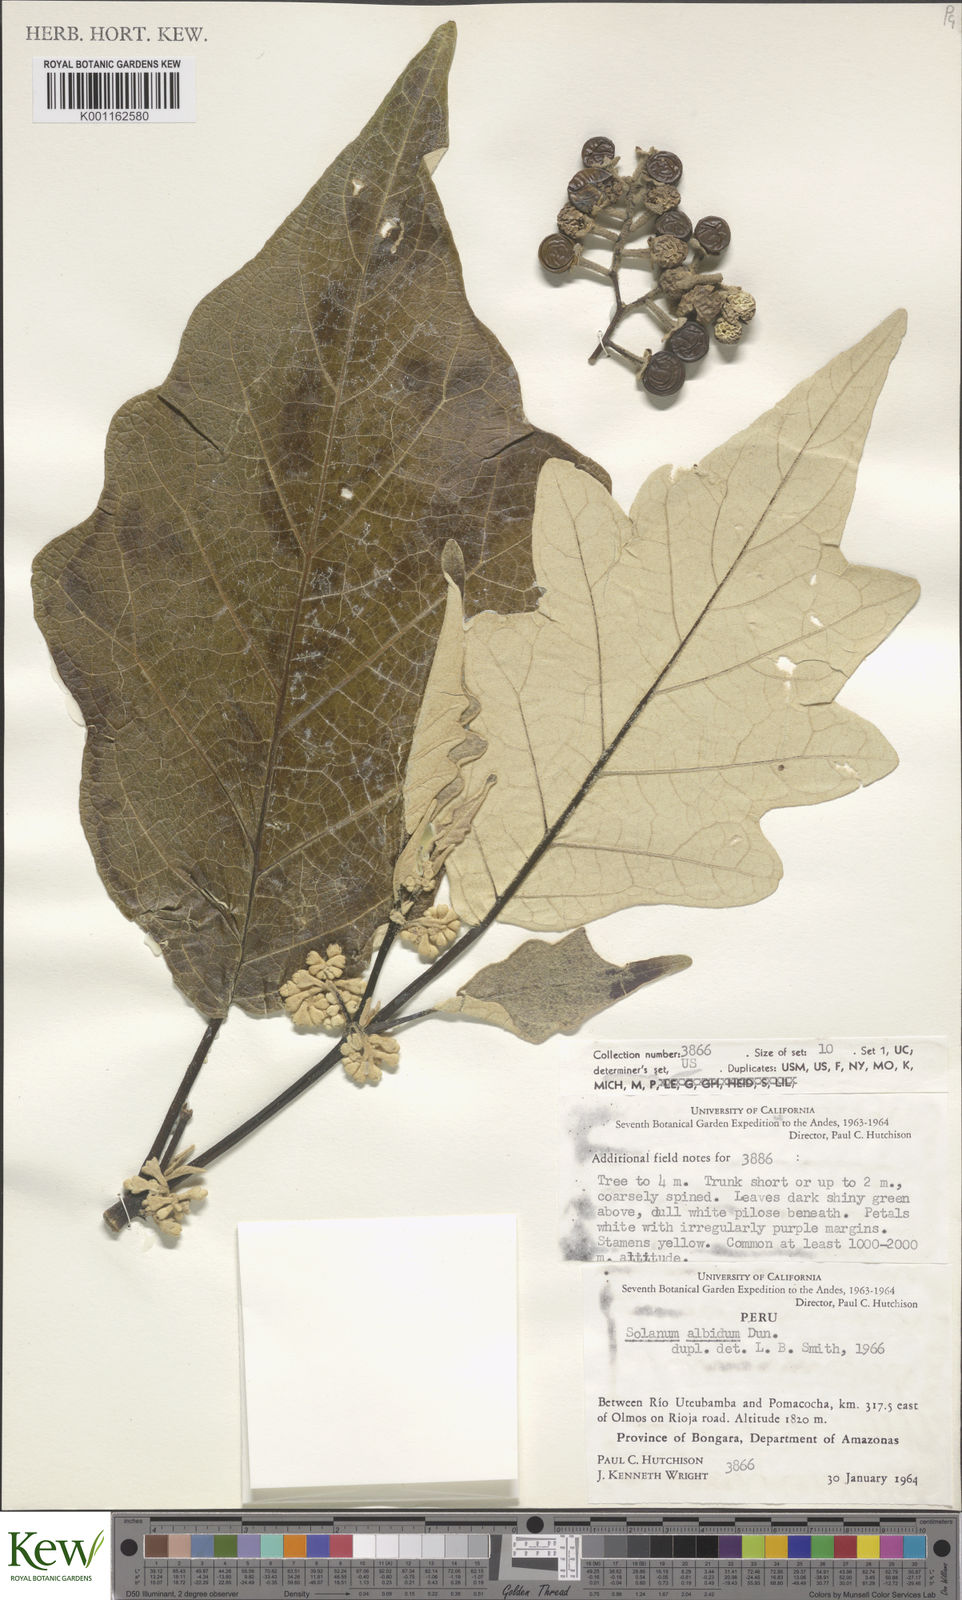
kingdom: Plantae
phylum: Tracheophyta
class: Magnoliopsida
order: Solanales
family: Solanaceae
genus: Solanum
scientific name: Solanum albidum
